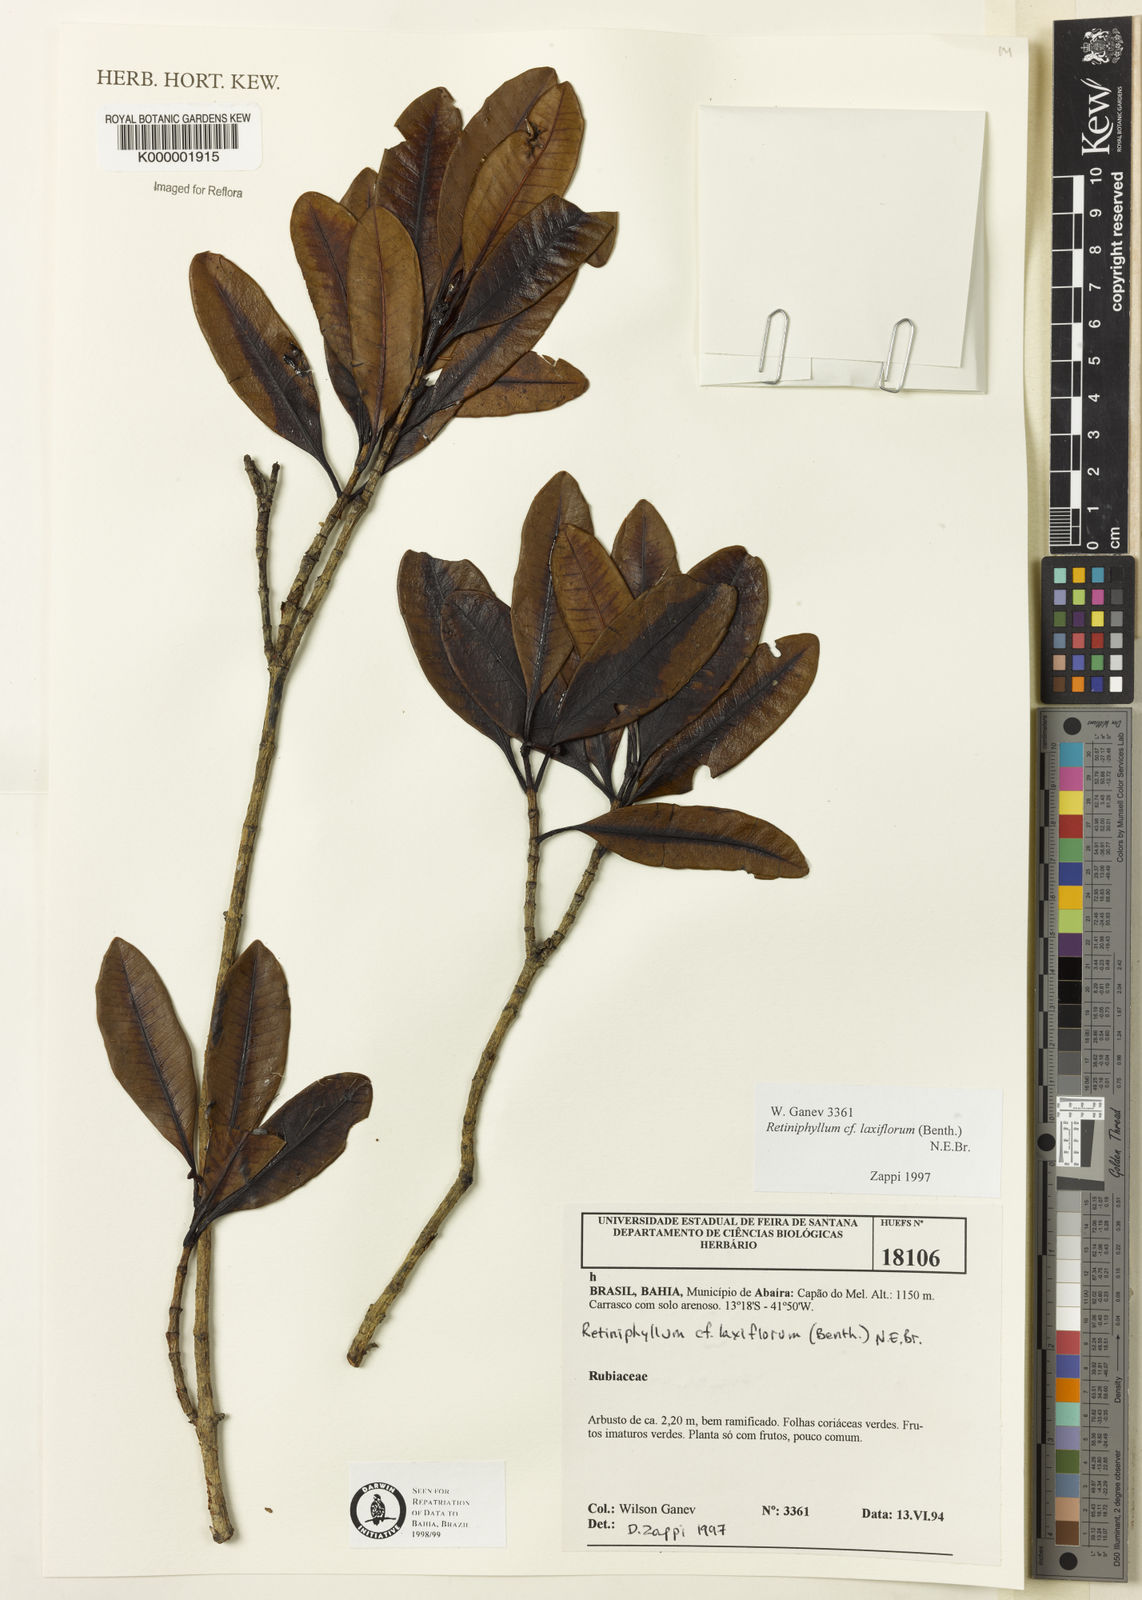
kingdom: Plantae
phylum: Tracheophyta
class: Magnoliopsida
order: Gentianales
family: Rubiaceae
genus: Retiniphyllum
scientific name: Retiniphyllum laxiflorum
